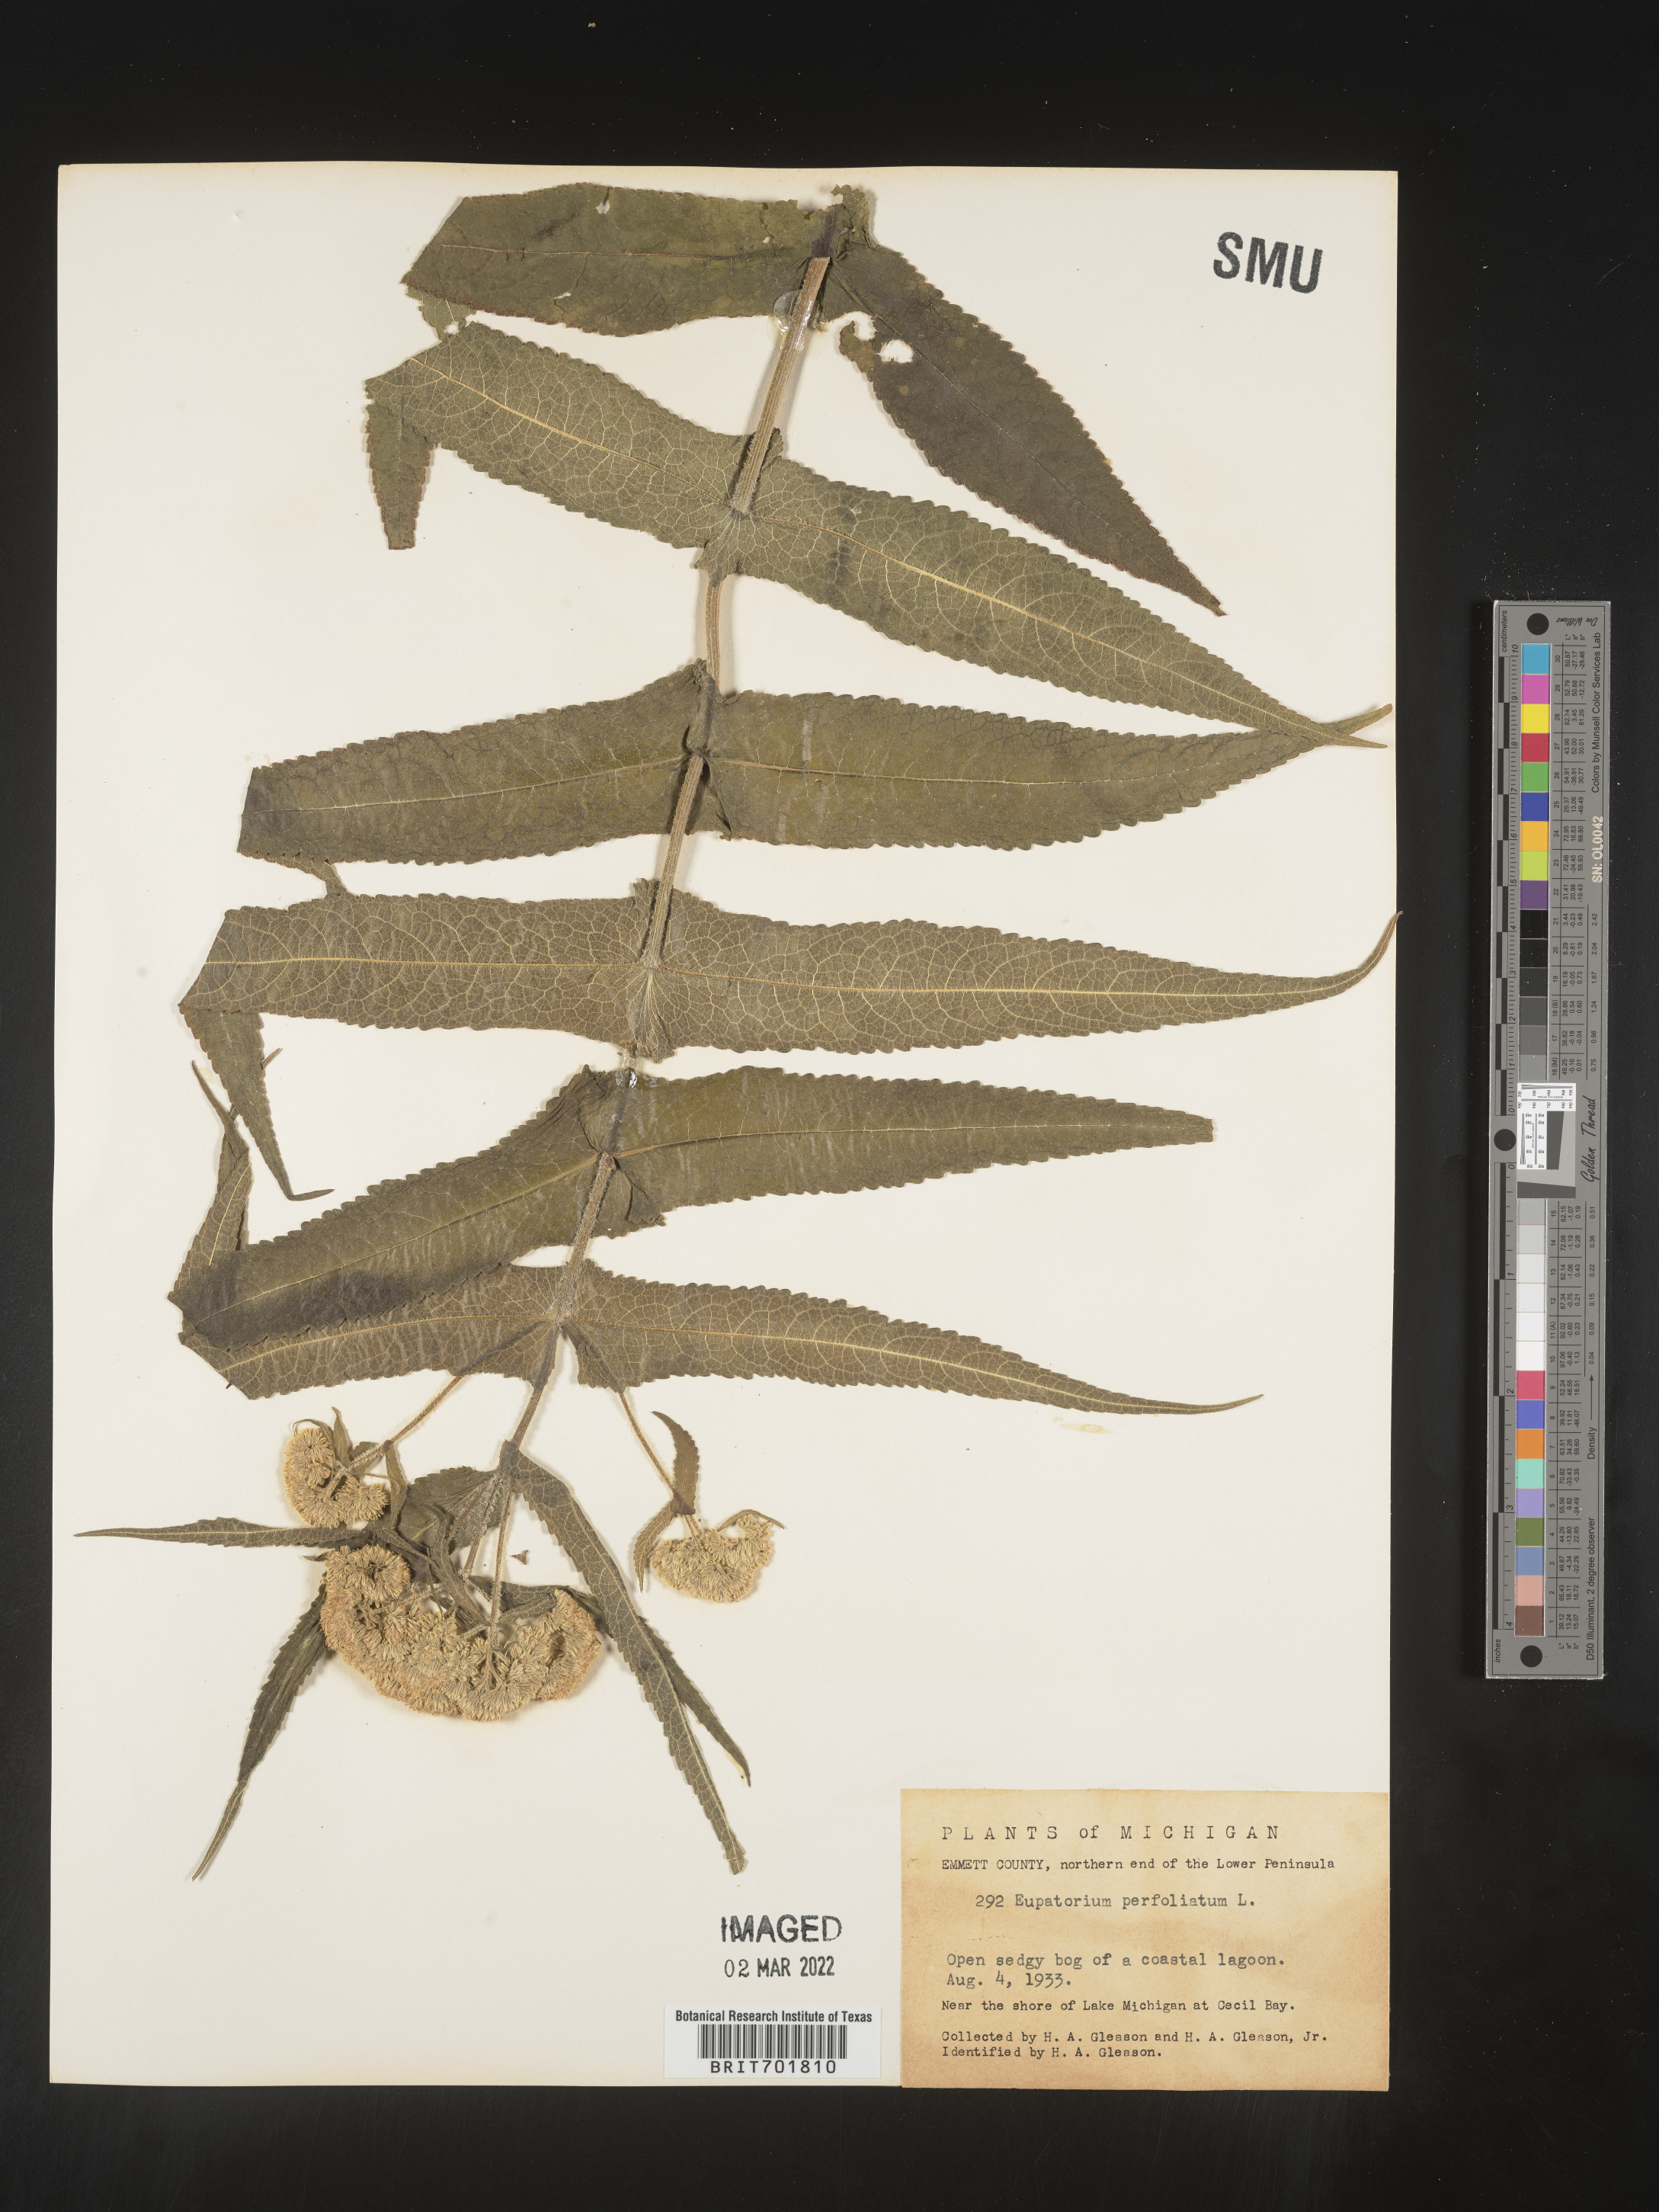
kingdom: Plantae
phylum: Tracheophyta
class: Magnoliopsida
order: Asterales
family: Asteraceae
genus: Eupatorium
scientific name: Eupatorium perfoliatum
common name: Boneset
